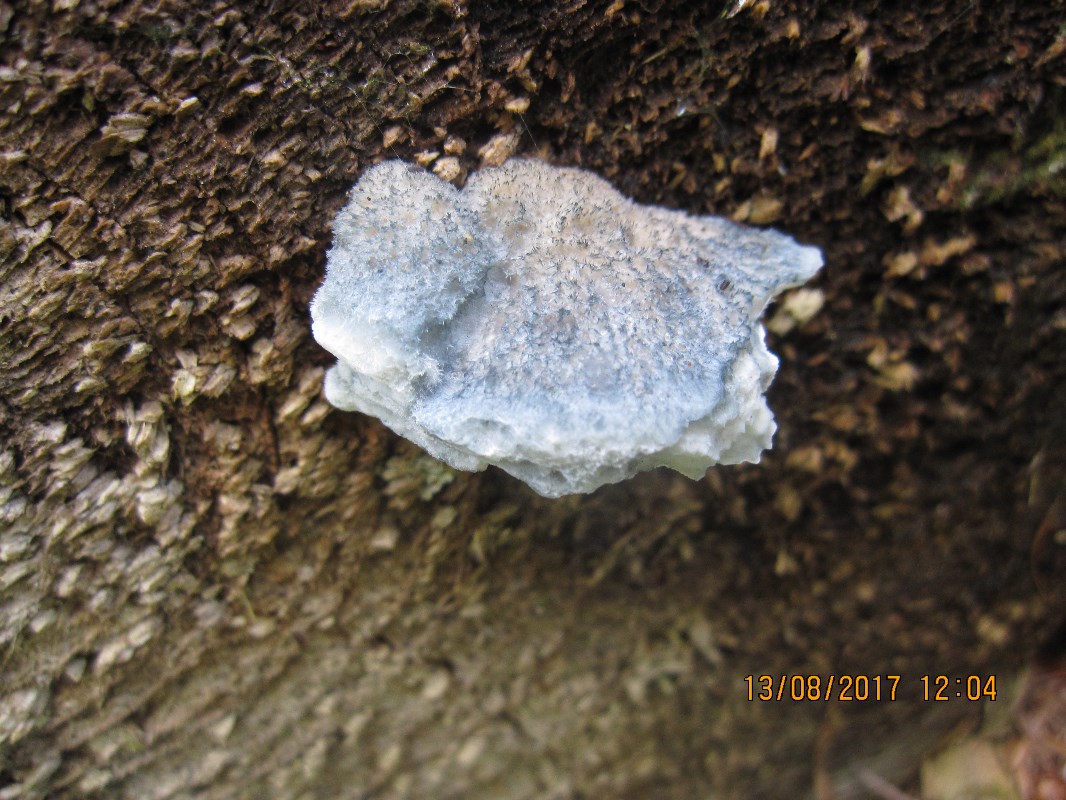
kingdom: Fungi
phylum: Basidiomycota
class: Agaricomycetes
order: Polyporales
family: Polyporaceae
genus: Cyanosporus
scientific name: Cyanosporus caesius
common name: blålig kødporesvamp
